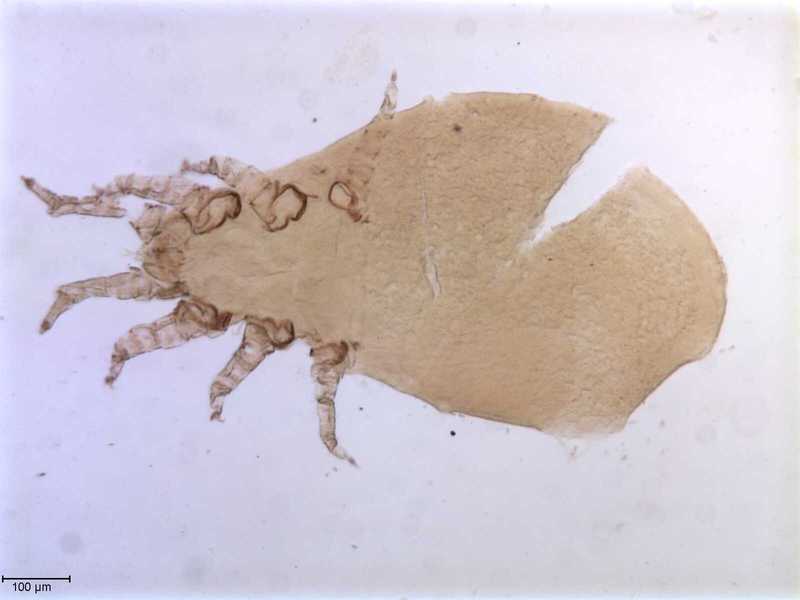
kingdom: Animalia
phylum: Arthropoda
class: Arachnida
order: Mesostigmata
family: Halarachnidae
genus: Pneumonyssus
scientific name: Pneumonyssus rodhaini
